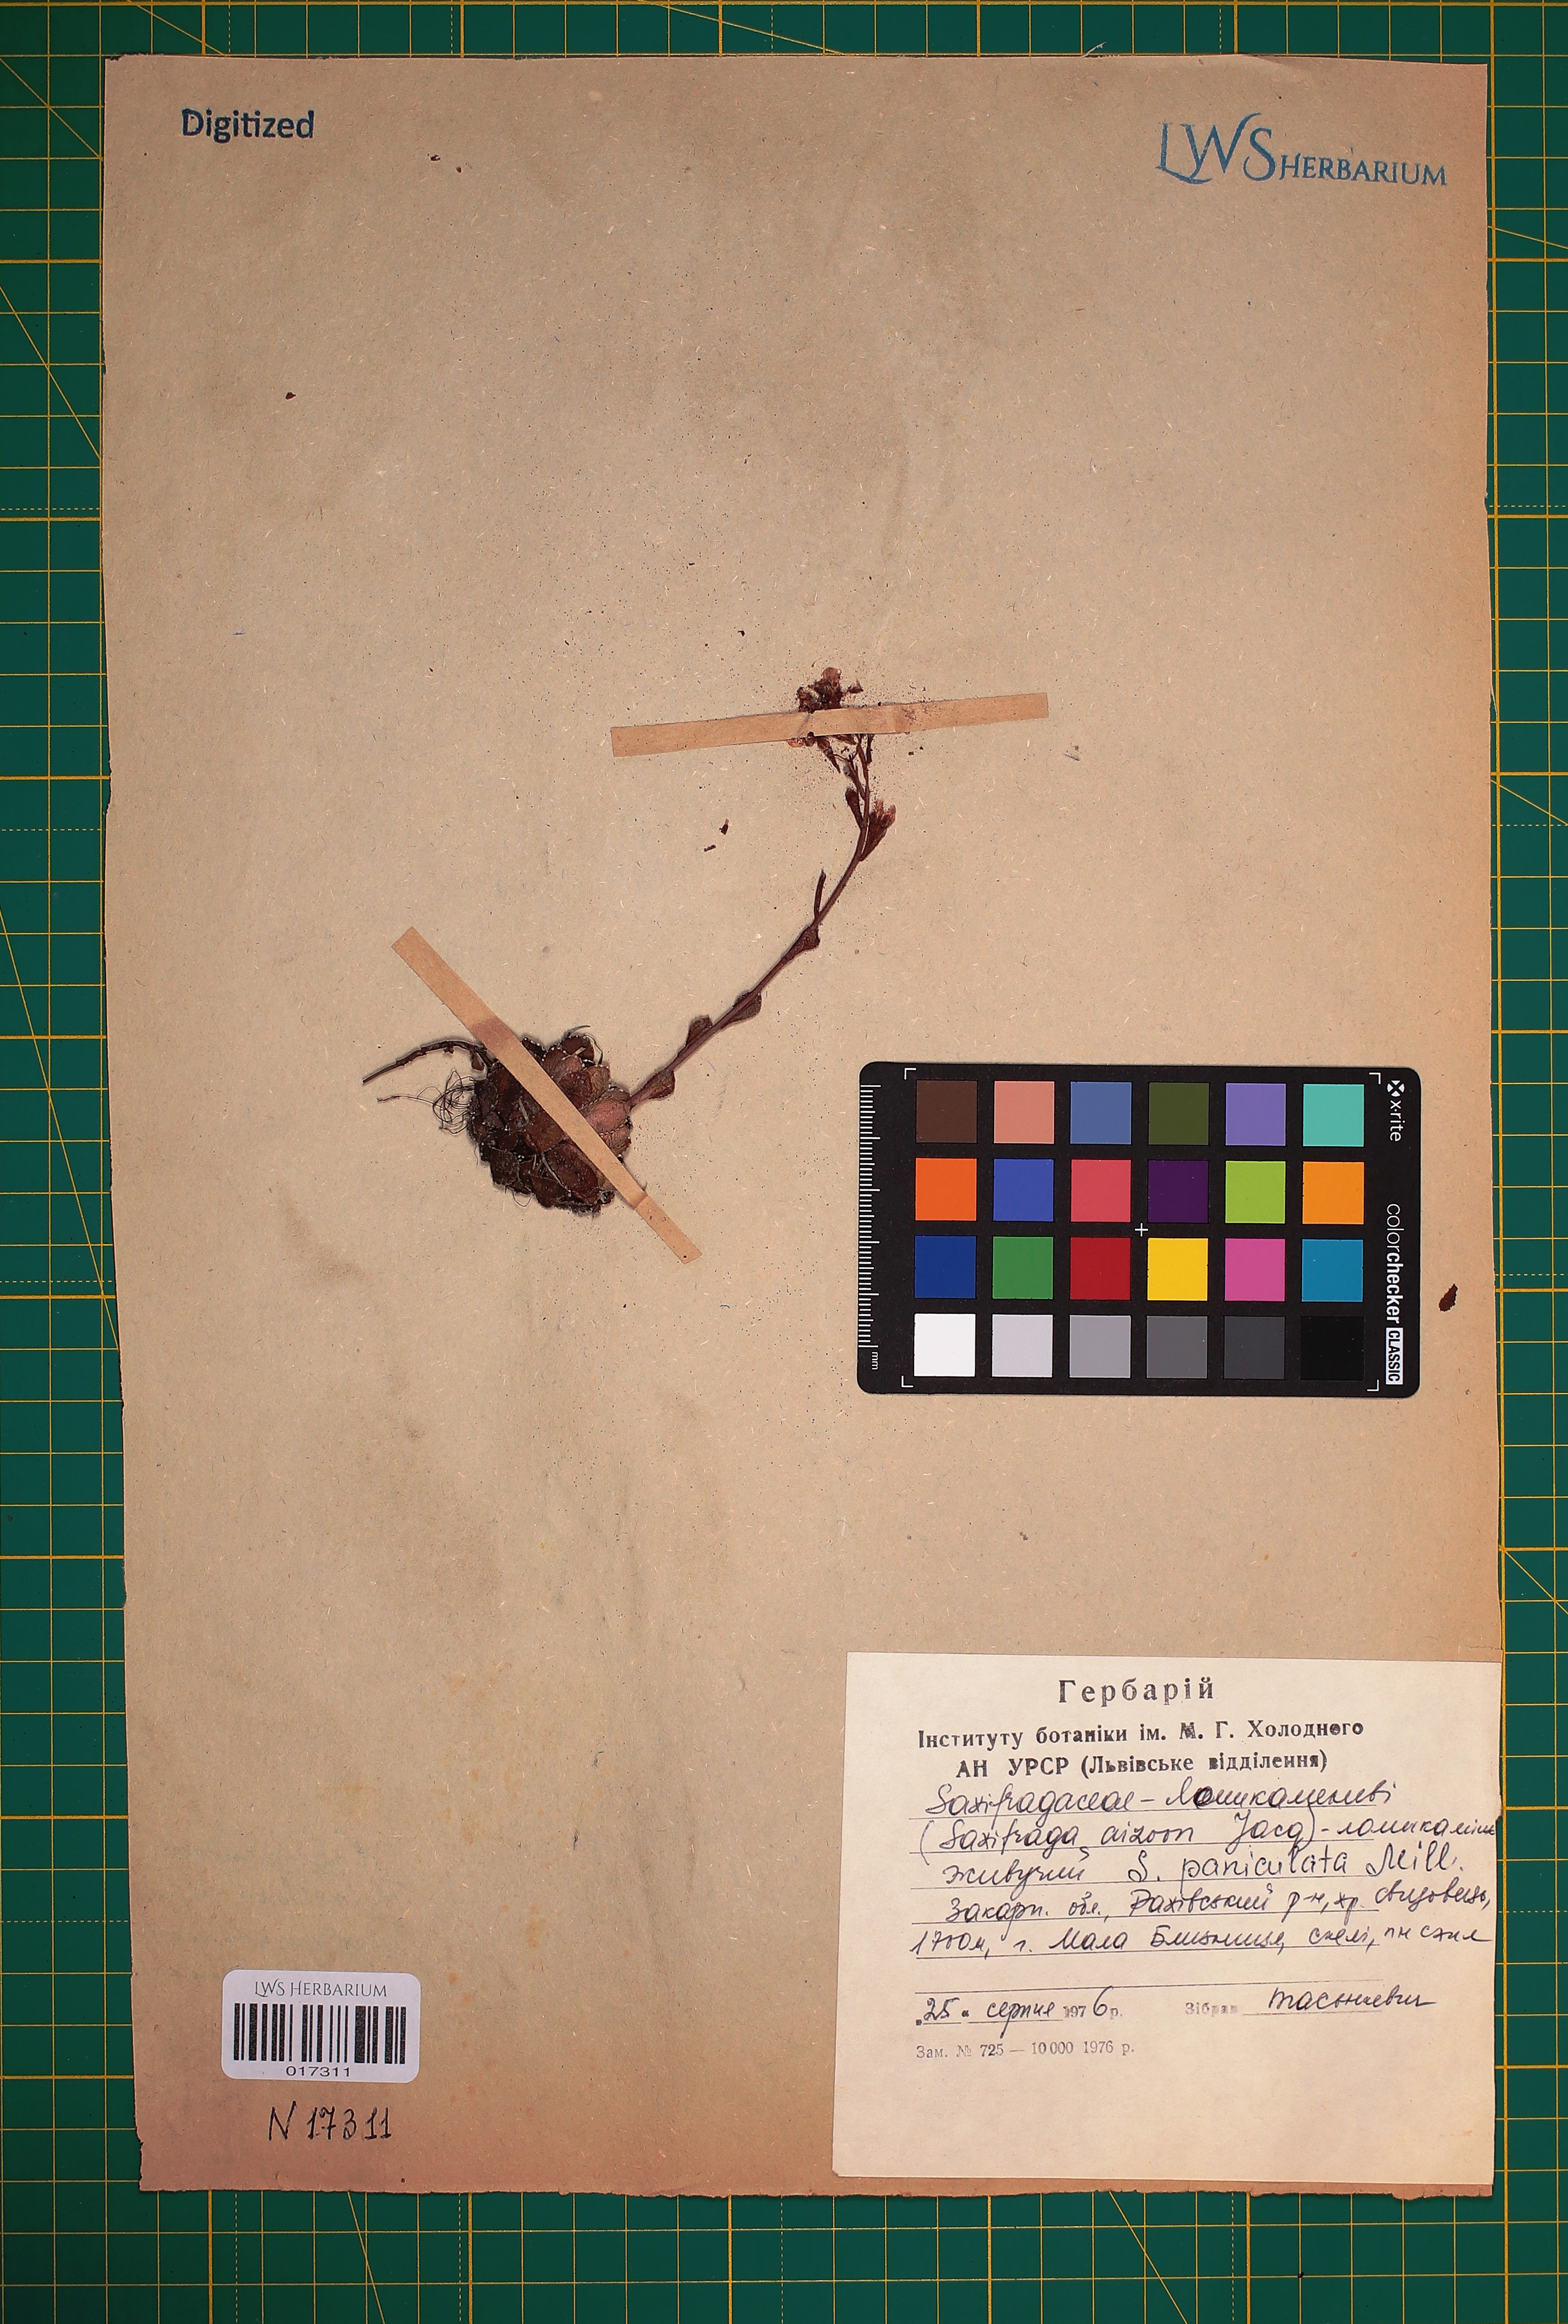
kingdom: Plantae
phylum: Tracheophyta
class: Magnoliopsida
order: Saxifragales
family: Saxifragaceae
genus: Saxifraga
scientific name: Saxifraga paniculata
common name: Livelong saxifrage
